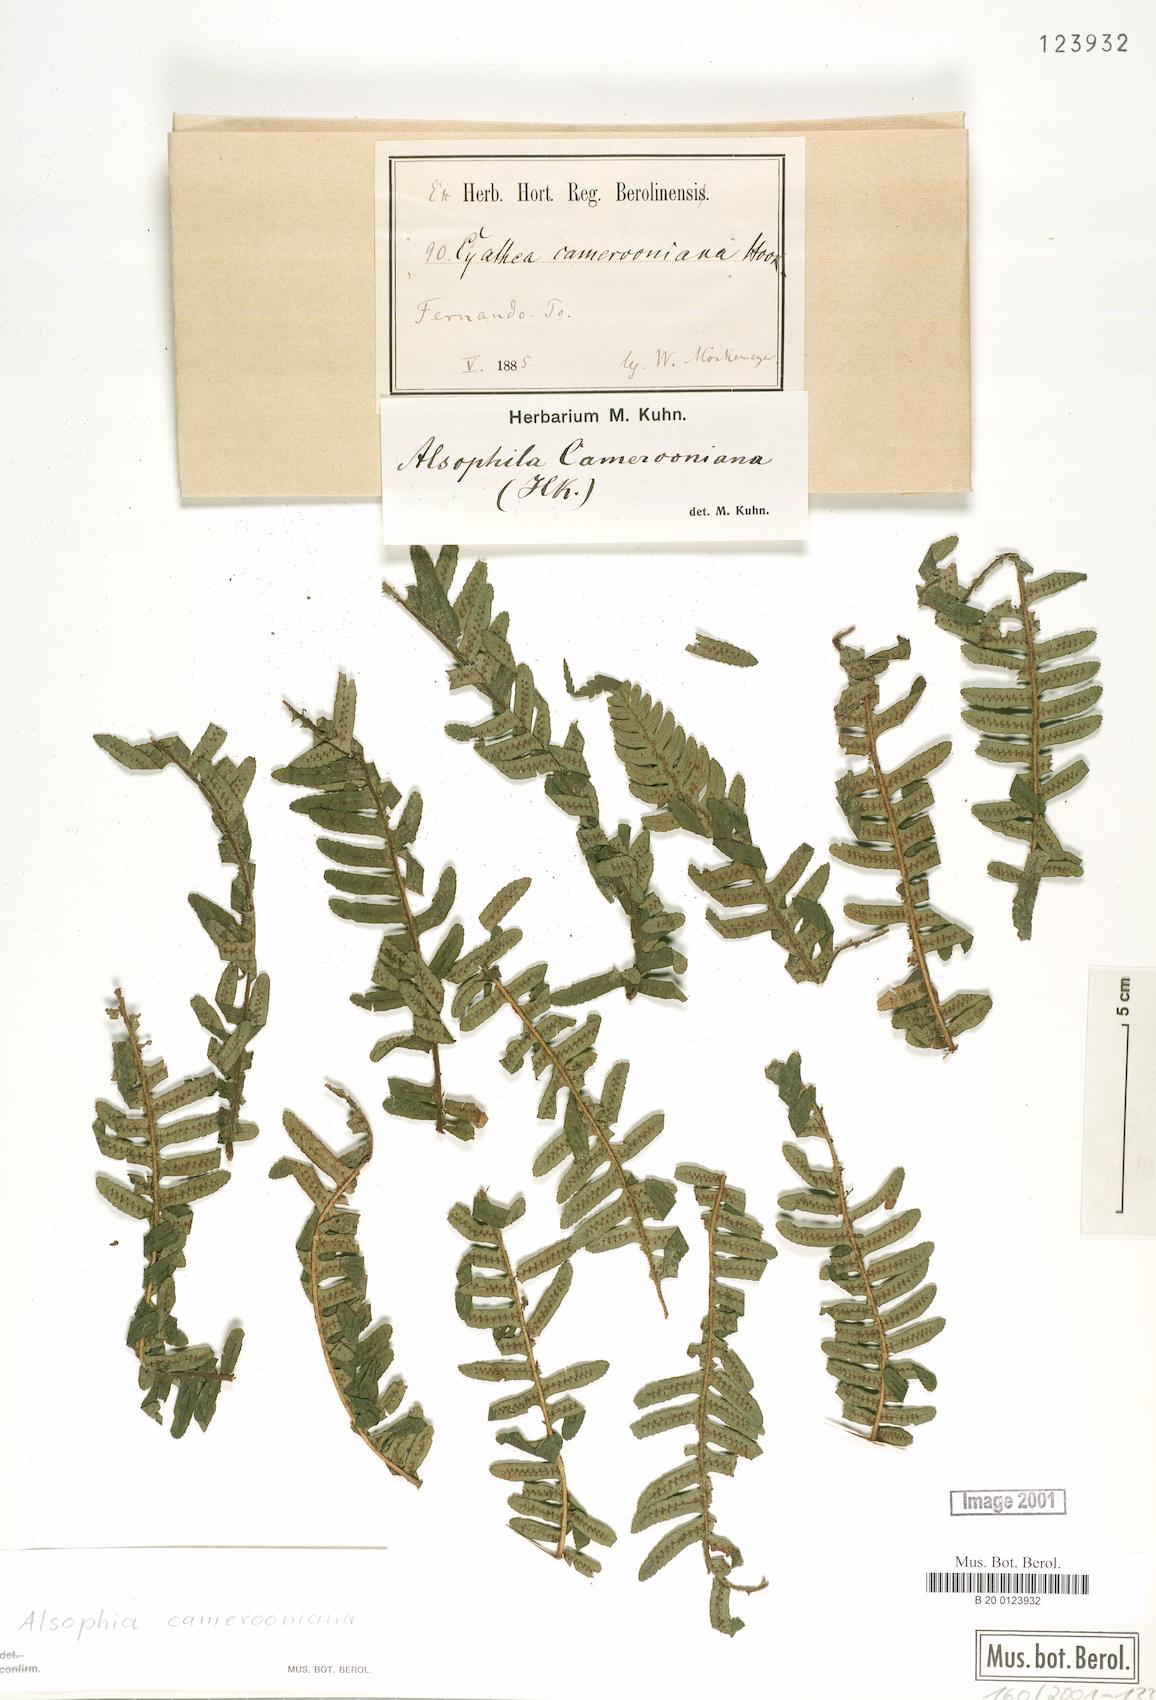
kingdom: Plantae
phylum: Tracheophyta
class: Polypodiopsida
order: Cyatheales
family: Cyatheaceae
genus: Alsophila
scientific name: Alsophila camerooniana
